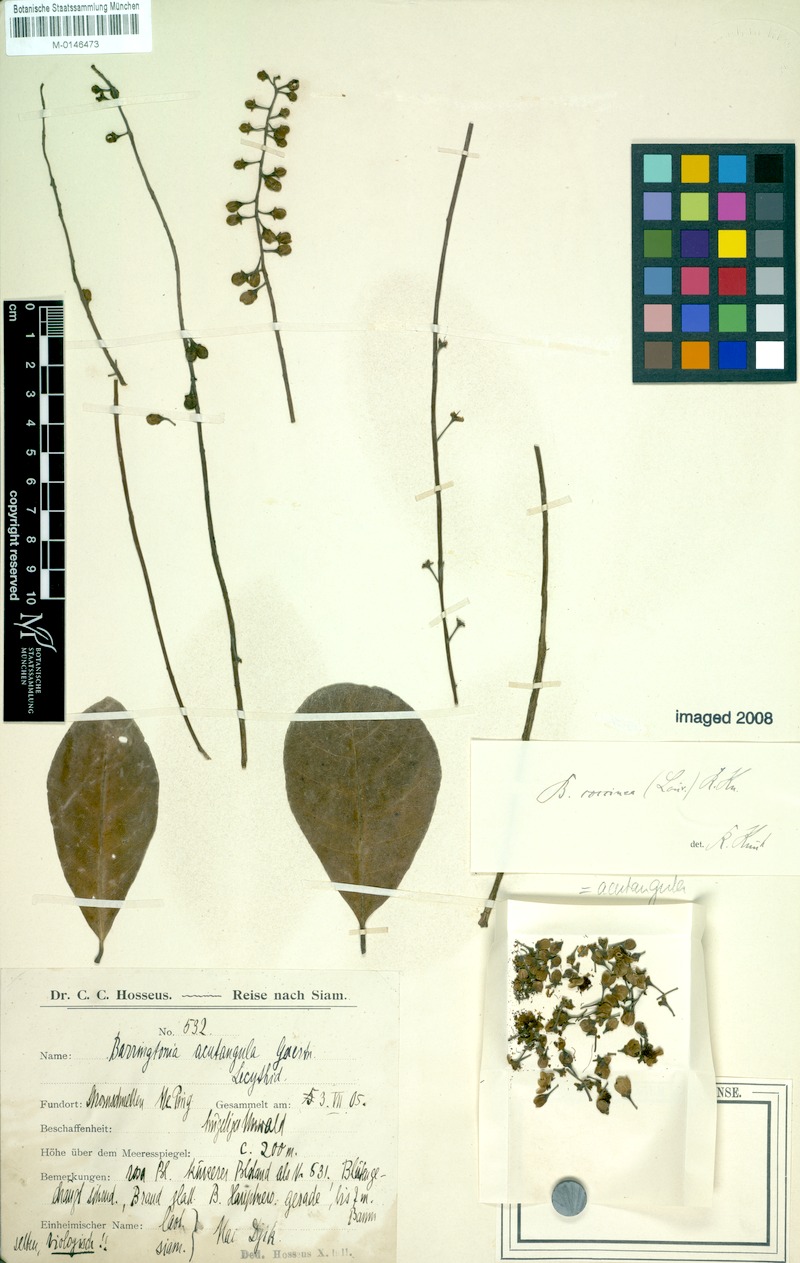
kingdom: Plantae
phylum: Tracheophyta
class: Magnoliopsida
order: Ericales
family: Lecythidaceae
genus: Barringtonia
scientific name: Barringtonia acutangula
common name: Freshwater mangrove
